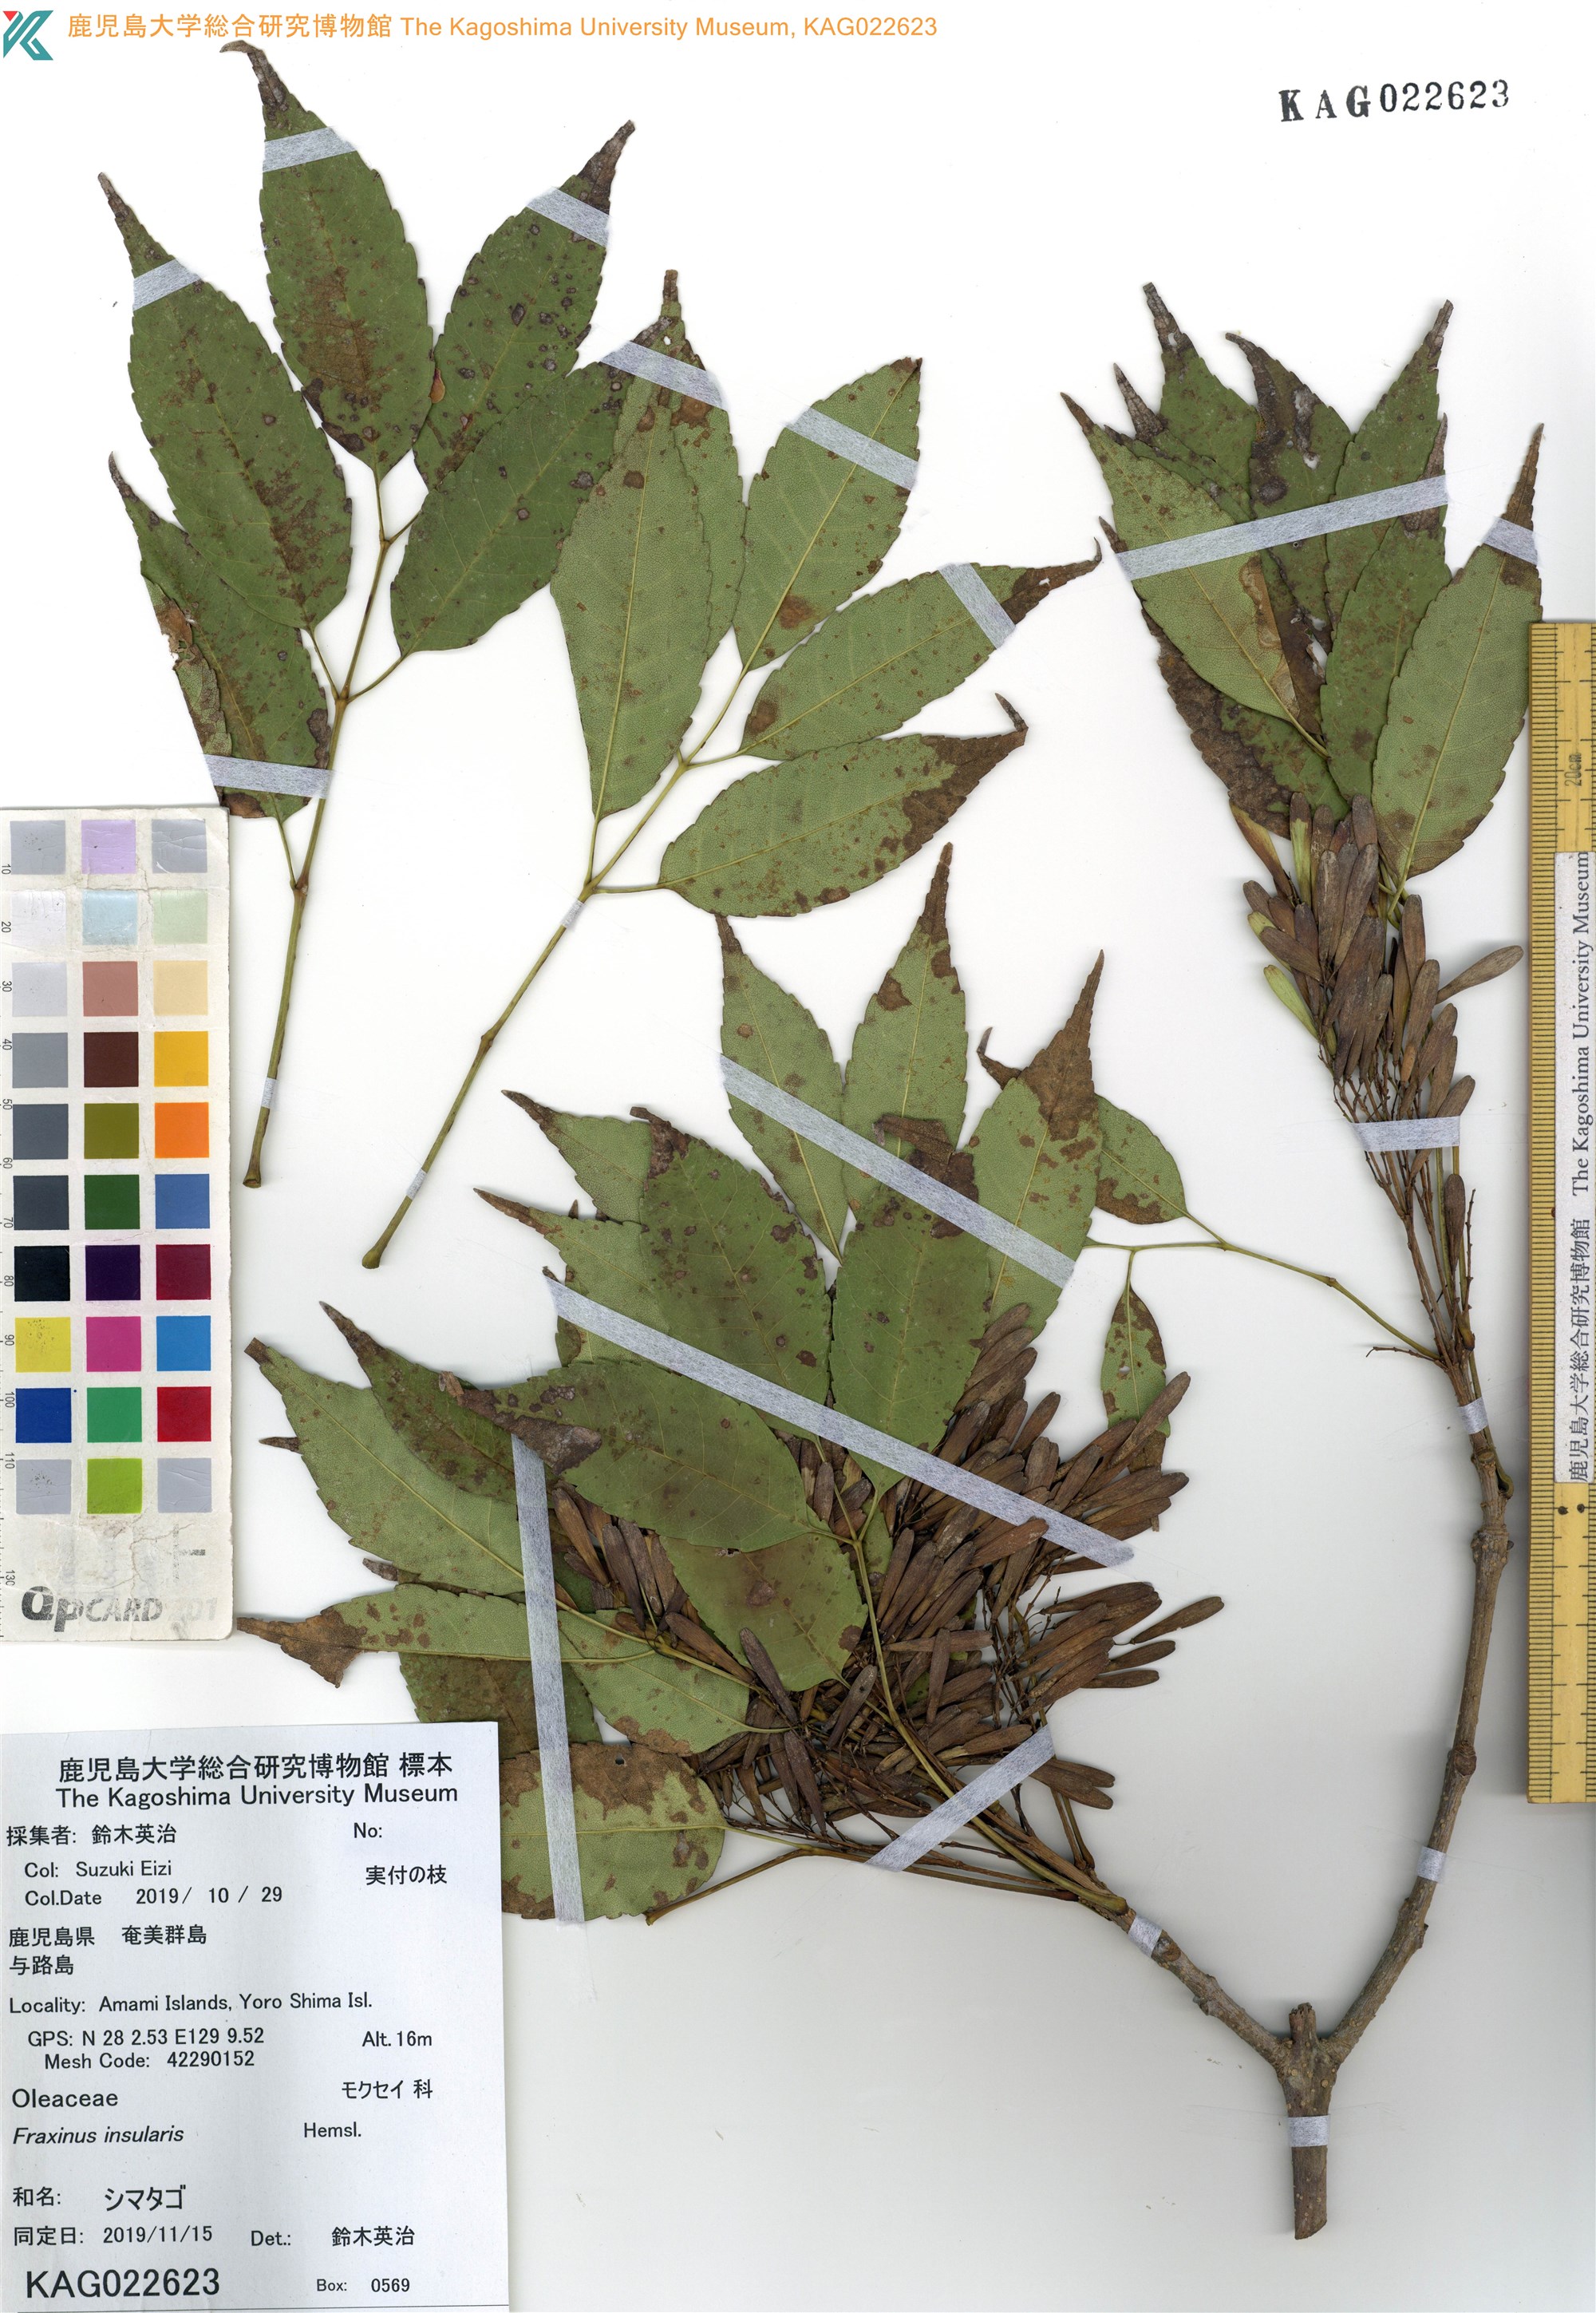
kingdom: Plantae
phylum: Tracheophyta
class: Magnoliopsida
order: Lamiales
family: Oleaceae
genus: Fraxinus
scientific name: Fraxinus insularis
